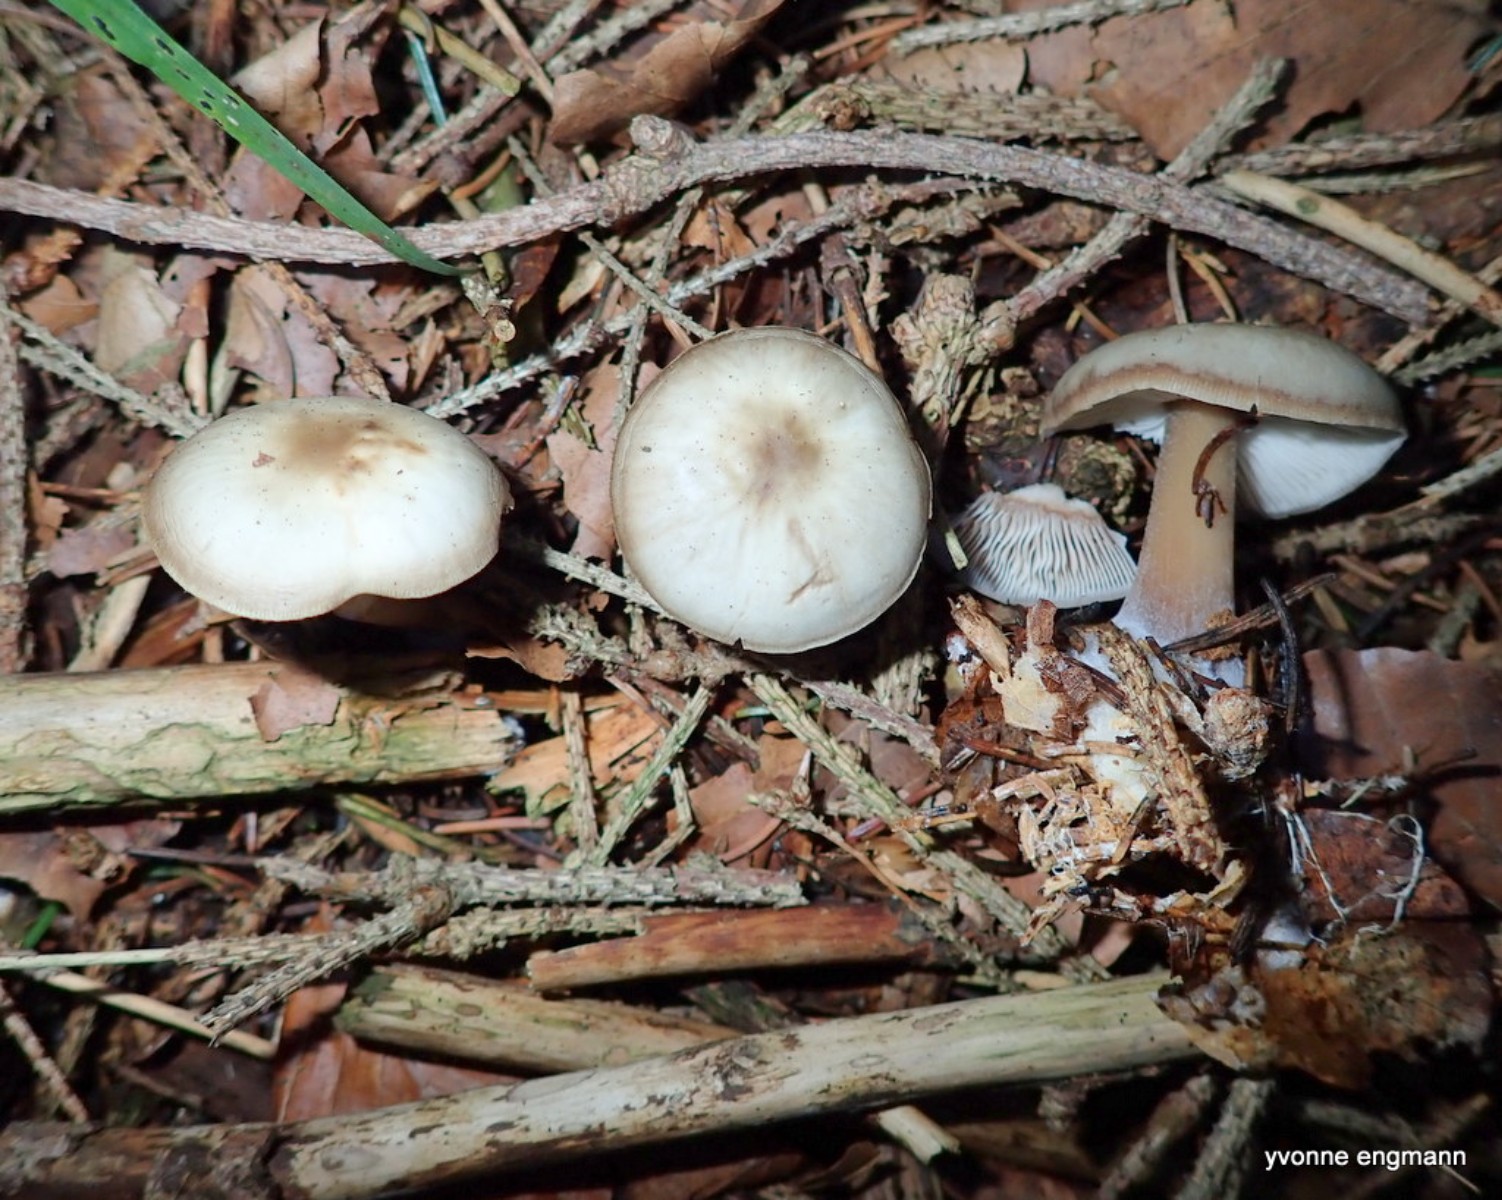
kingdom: Fungi
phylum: Basidiomycota
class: Agaricomycetes
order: Agaricales
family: Omphalotaceae
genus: Rhodocollybia
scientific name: Rhodocollybia asema
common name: horngrå fladhat
